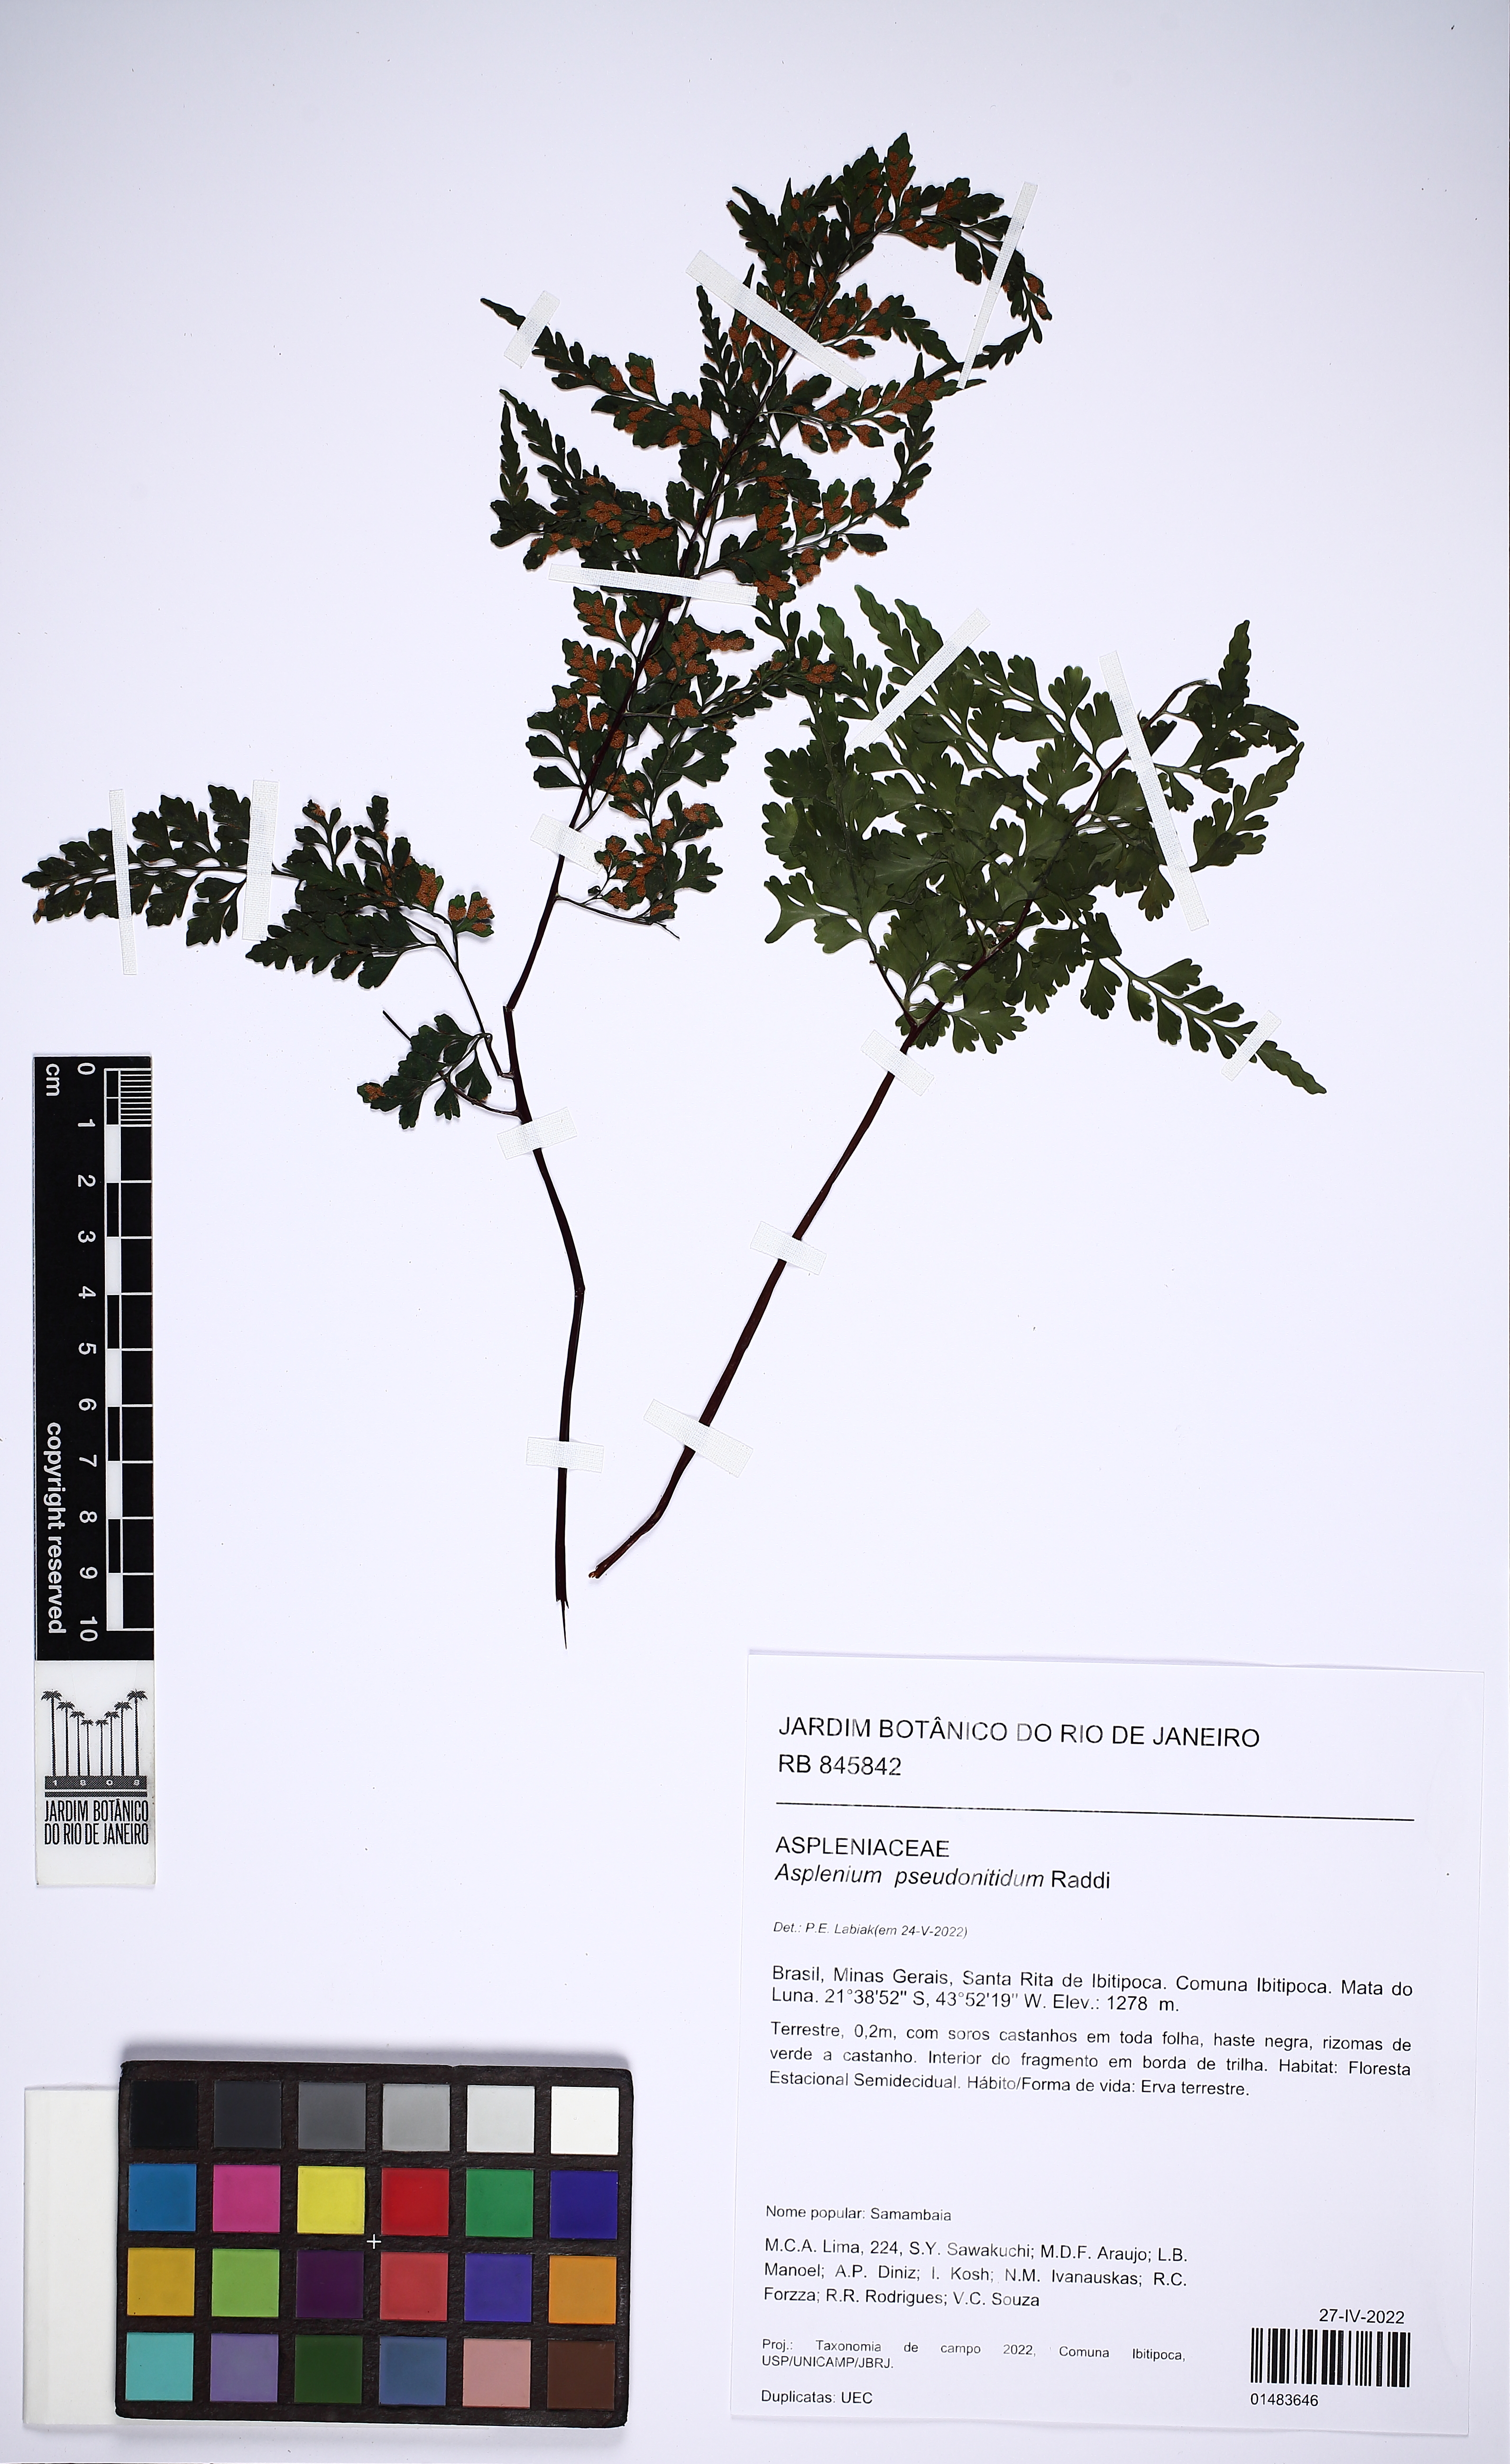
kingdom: Plantae
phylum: Tracheophyta
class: Polypodiopsida
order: Polypodiales
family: Aspleniaceae
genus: Asplenium
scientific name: Asplenium pseudonitidum
